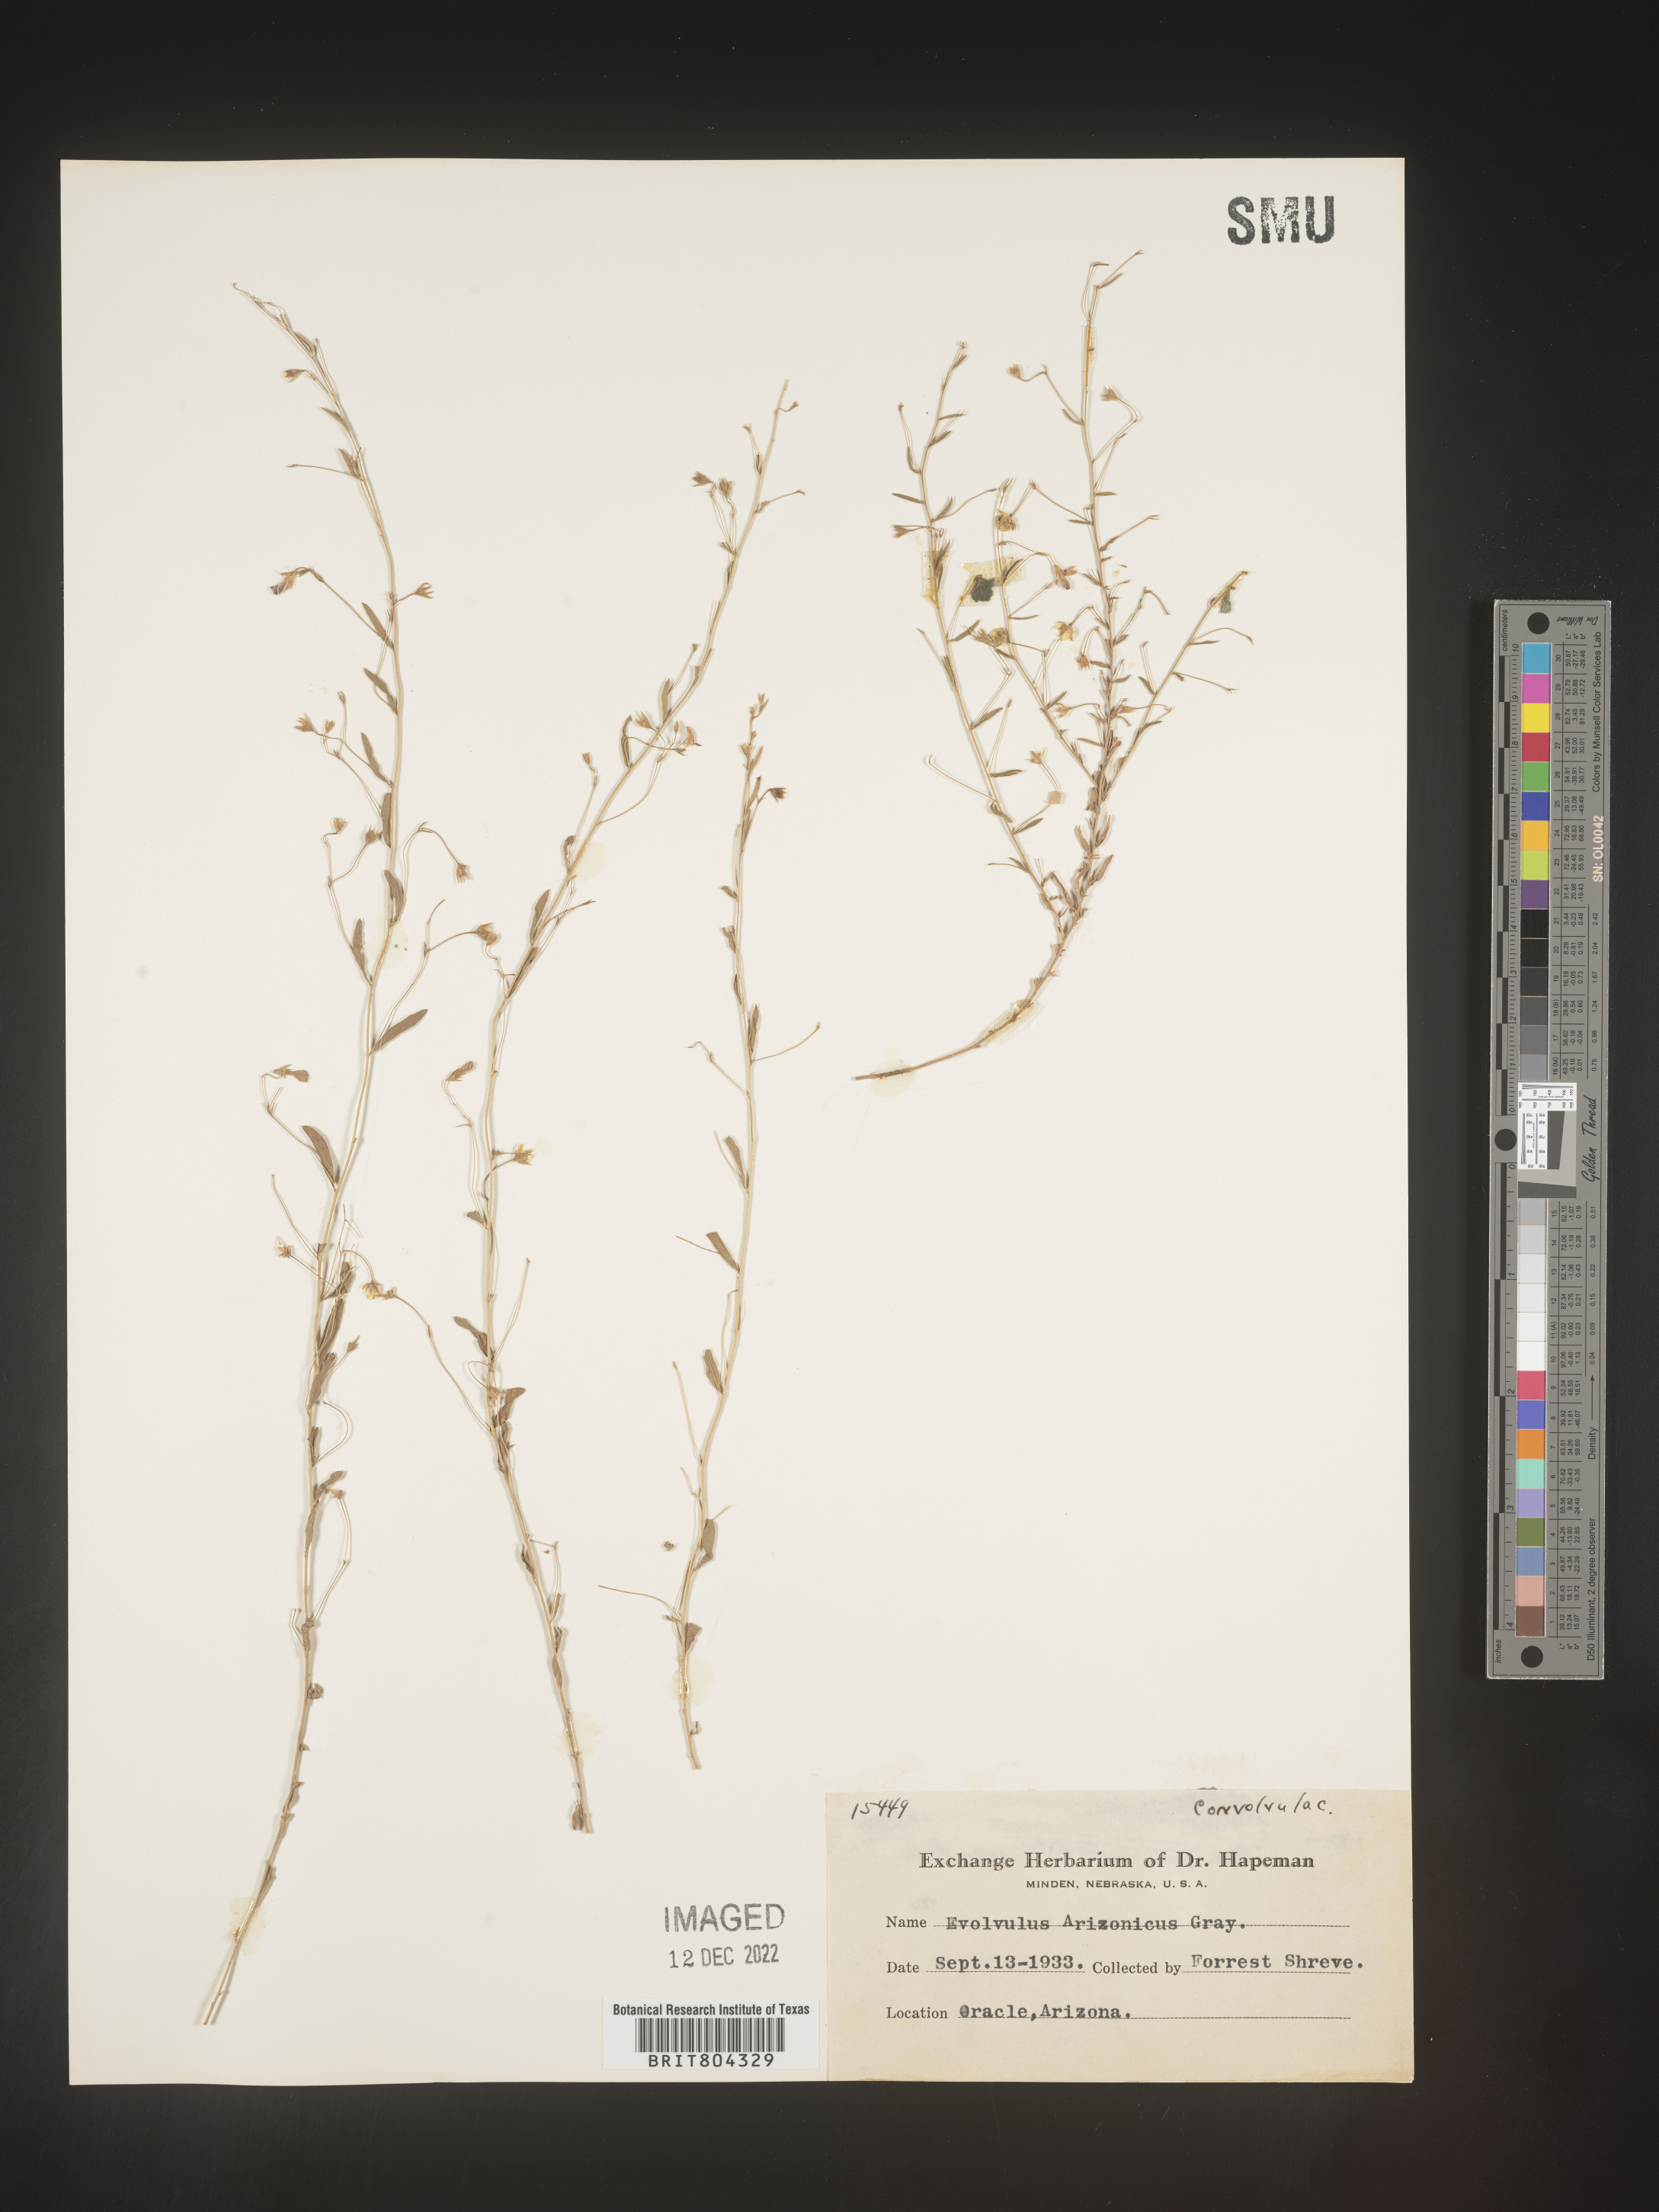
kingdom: Plantae
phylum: Tracheophyta
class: Magnoliopsida
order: Solanales
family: Convolvulaceae
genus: Evolvulus
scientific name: Evolvulus arizonicus
